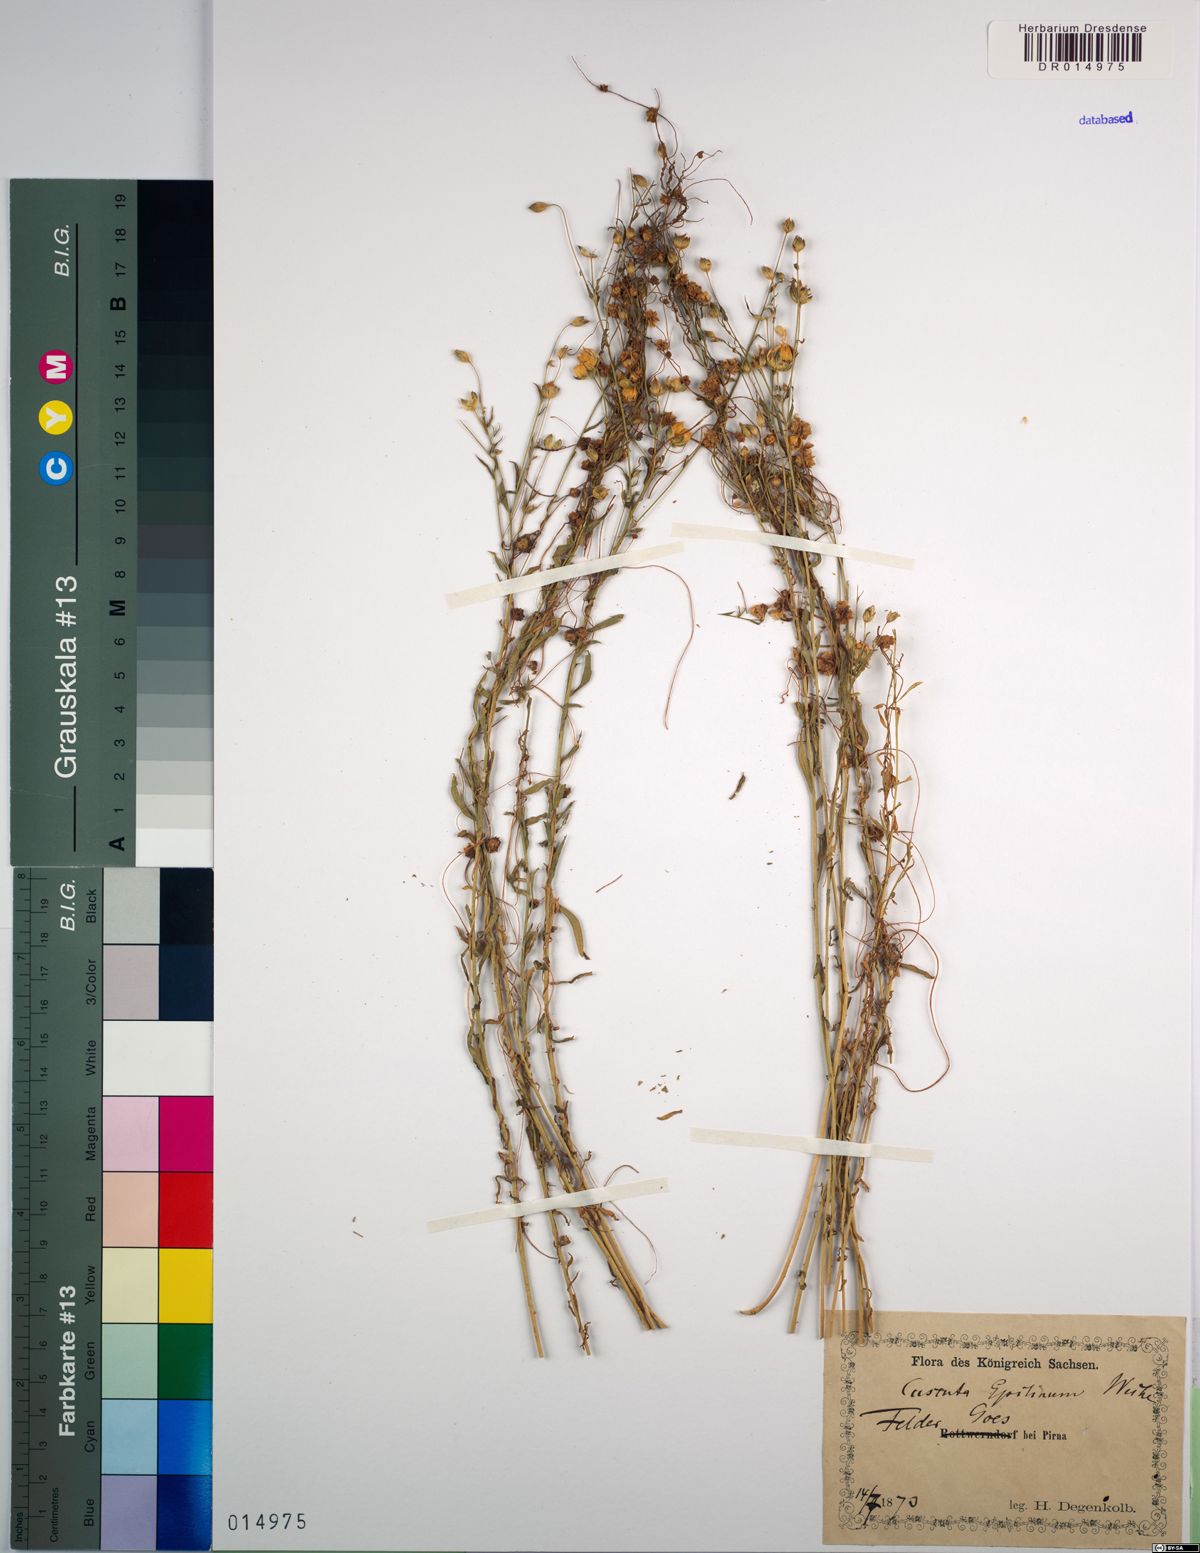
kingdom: Plantae
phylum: Tracheophyta
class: Magnoliopsida
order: Solanales
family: Convolvulaceae
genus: Cuscuta
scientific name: Cuscuta epilinum
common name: Flax dodder
